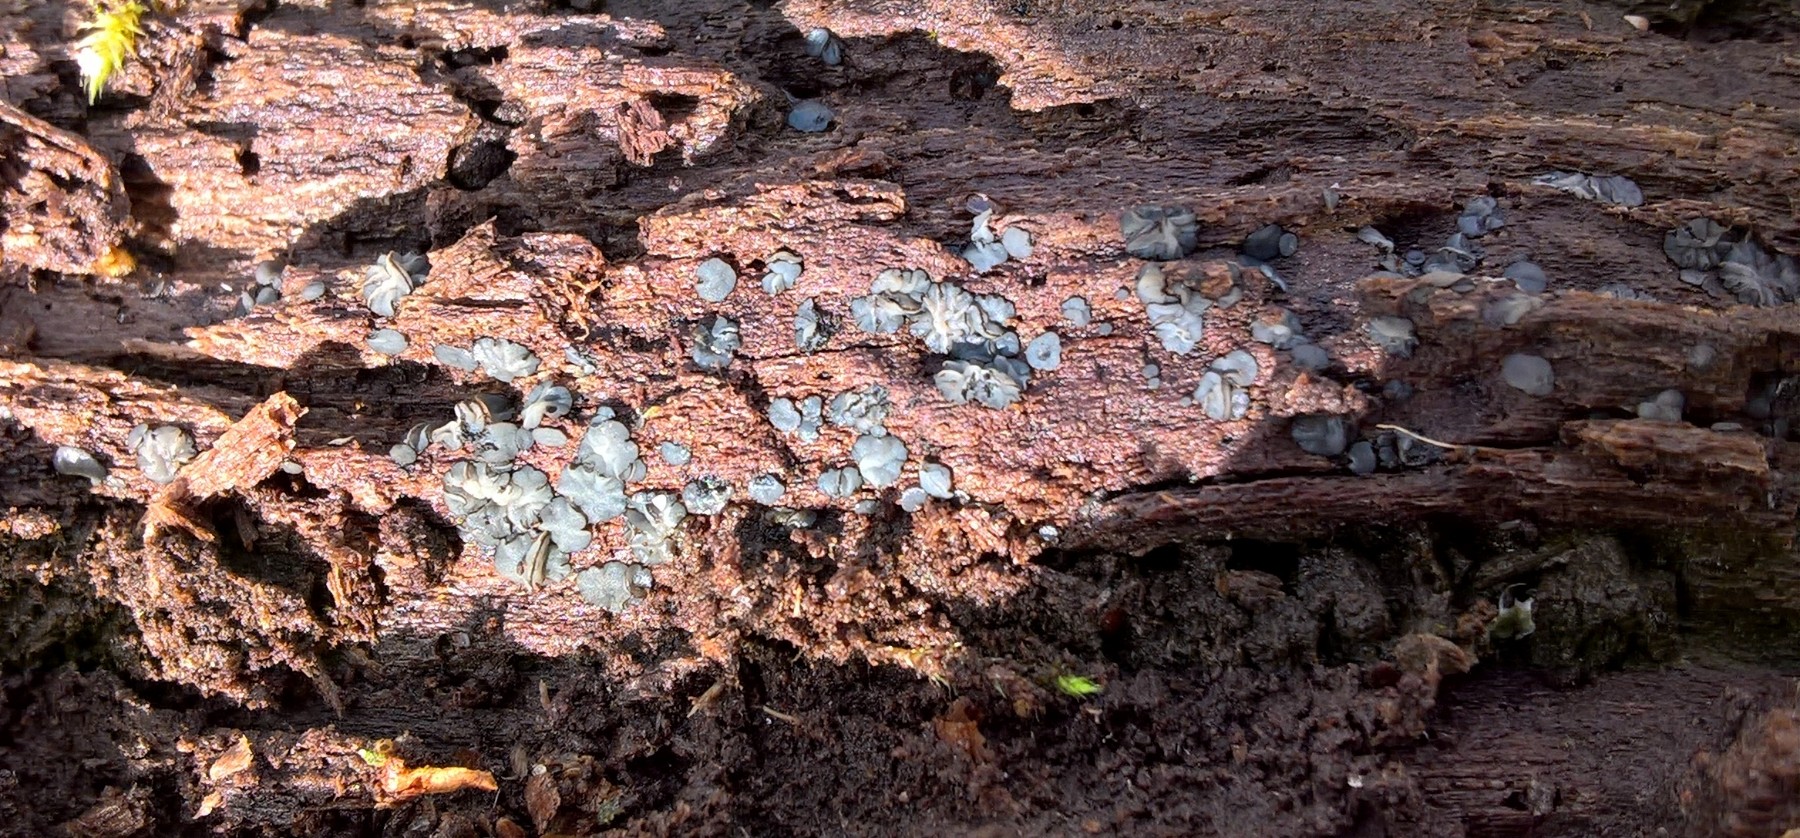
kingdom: Fungi
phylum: Ascomycota
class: Leotiomycetes
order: Helotiales
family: Mollisiaceae
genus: Mollisia
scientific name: Mollisia
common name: gråskive
